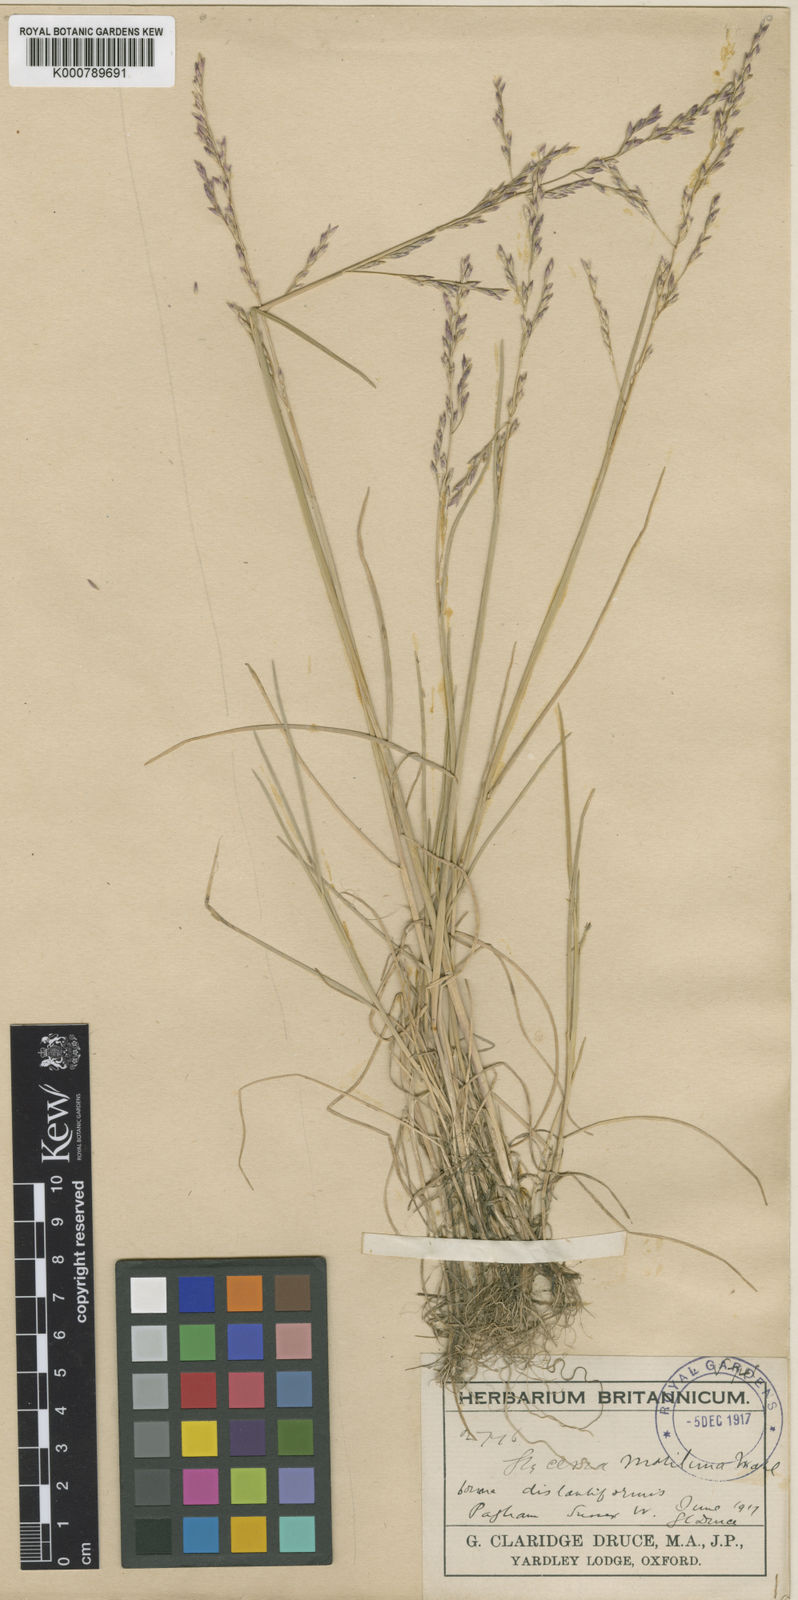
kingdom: Plantae
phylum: Tracheophyta
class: Liliopsida
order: Poales
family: Poaceae
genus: Puccinellia
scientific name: Puccinellia maritima
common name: Common saltmarsh grass
